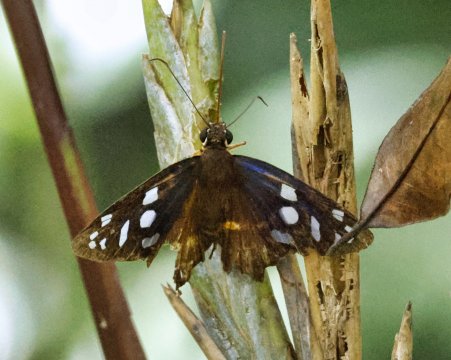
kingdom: Animalia
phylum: Arthropoda
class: Insecta
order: Lepidoptera
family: Hesperiidae
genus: Phareas
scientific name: Phareas burnsi
